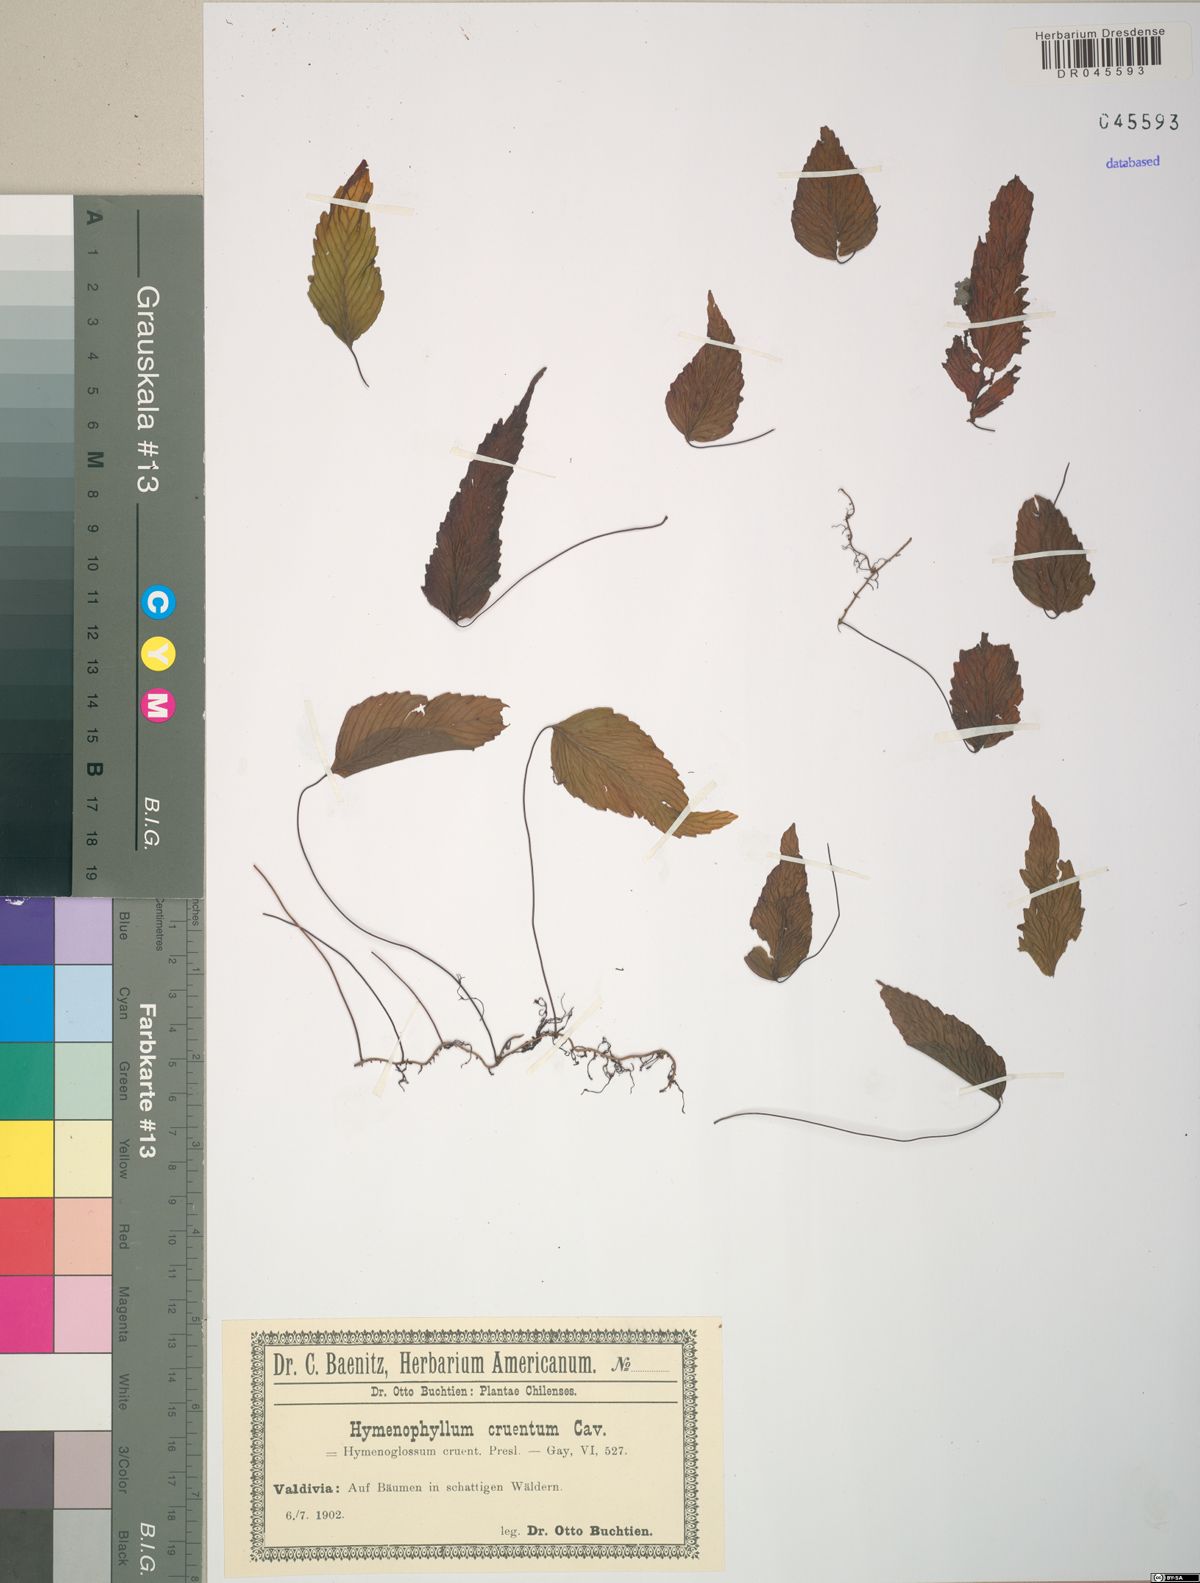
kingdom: Plantae
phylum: Tracheophyta
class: Polypodiopsida
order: Hymenophyllales
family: Hymenophyllaceae
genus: Hymenophyllum
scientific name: Hymenophyllum cruentum
